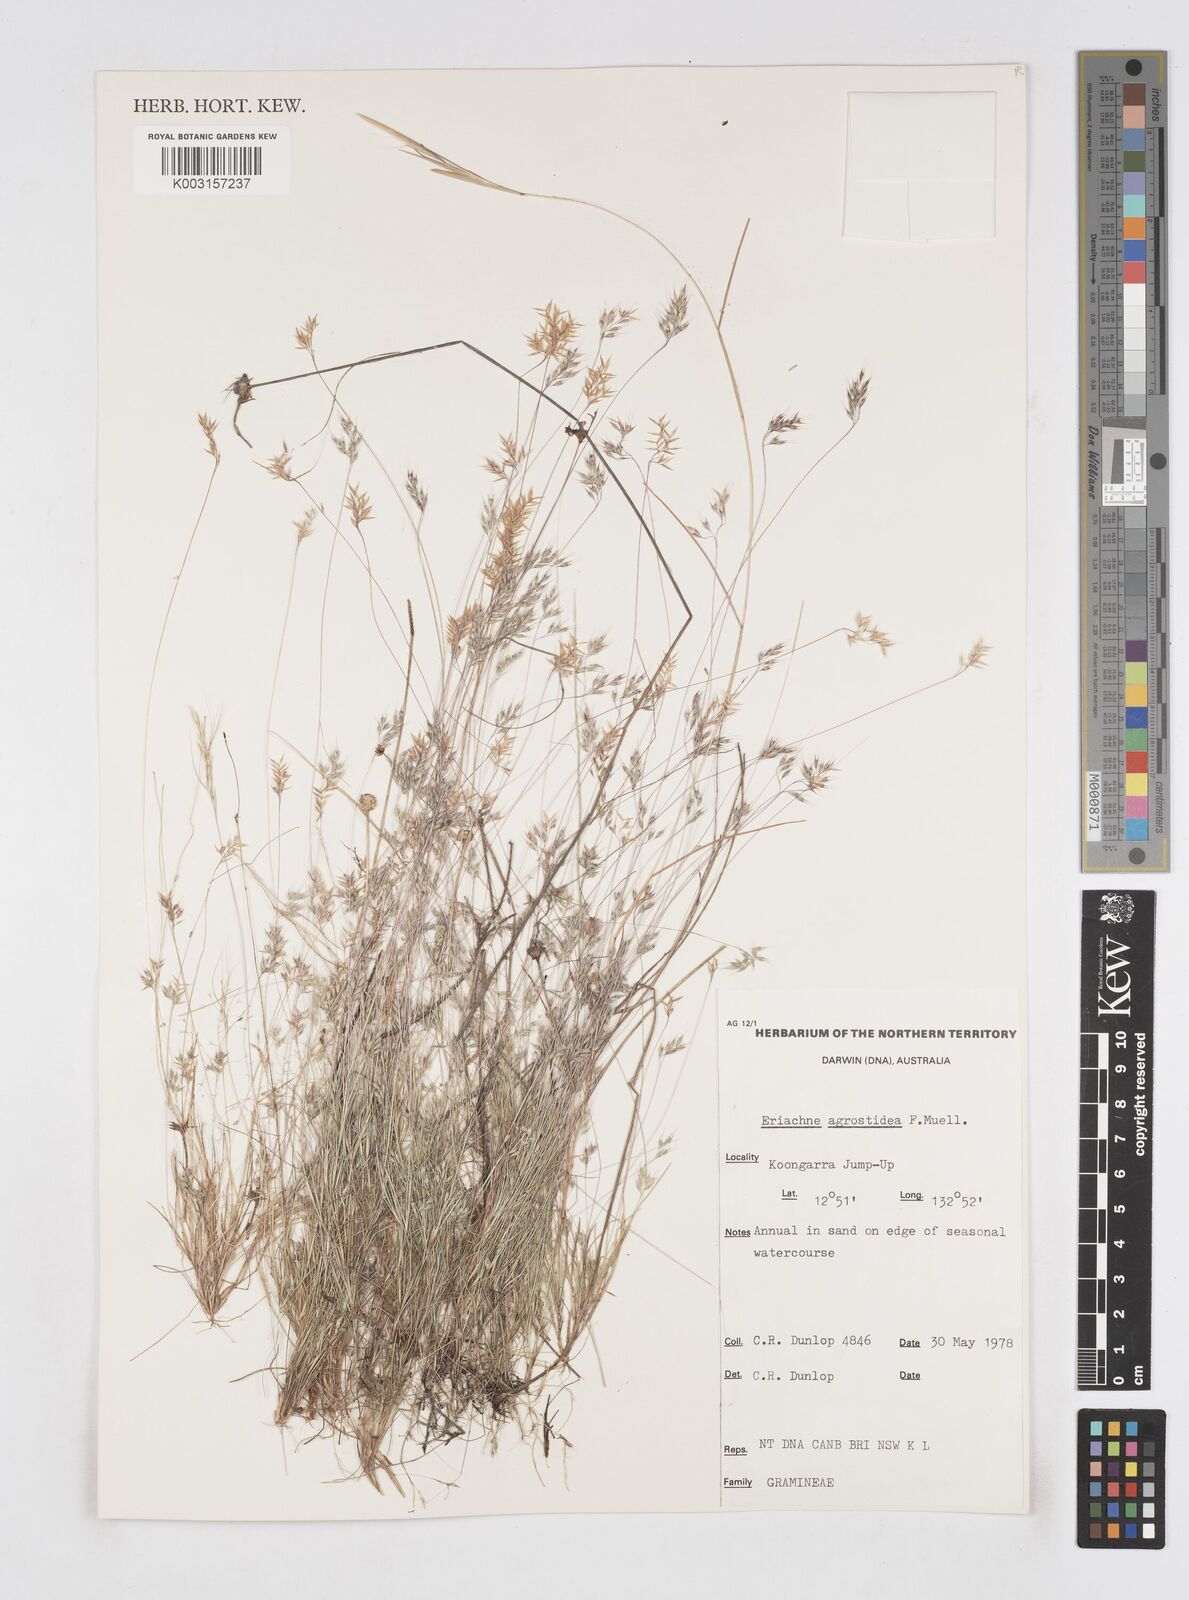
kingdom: Plantae
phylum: Tracheophyta
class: Liliopsida
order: Poales
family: Poaceae
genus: Eriachne
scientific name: Eriachne agrostidea
